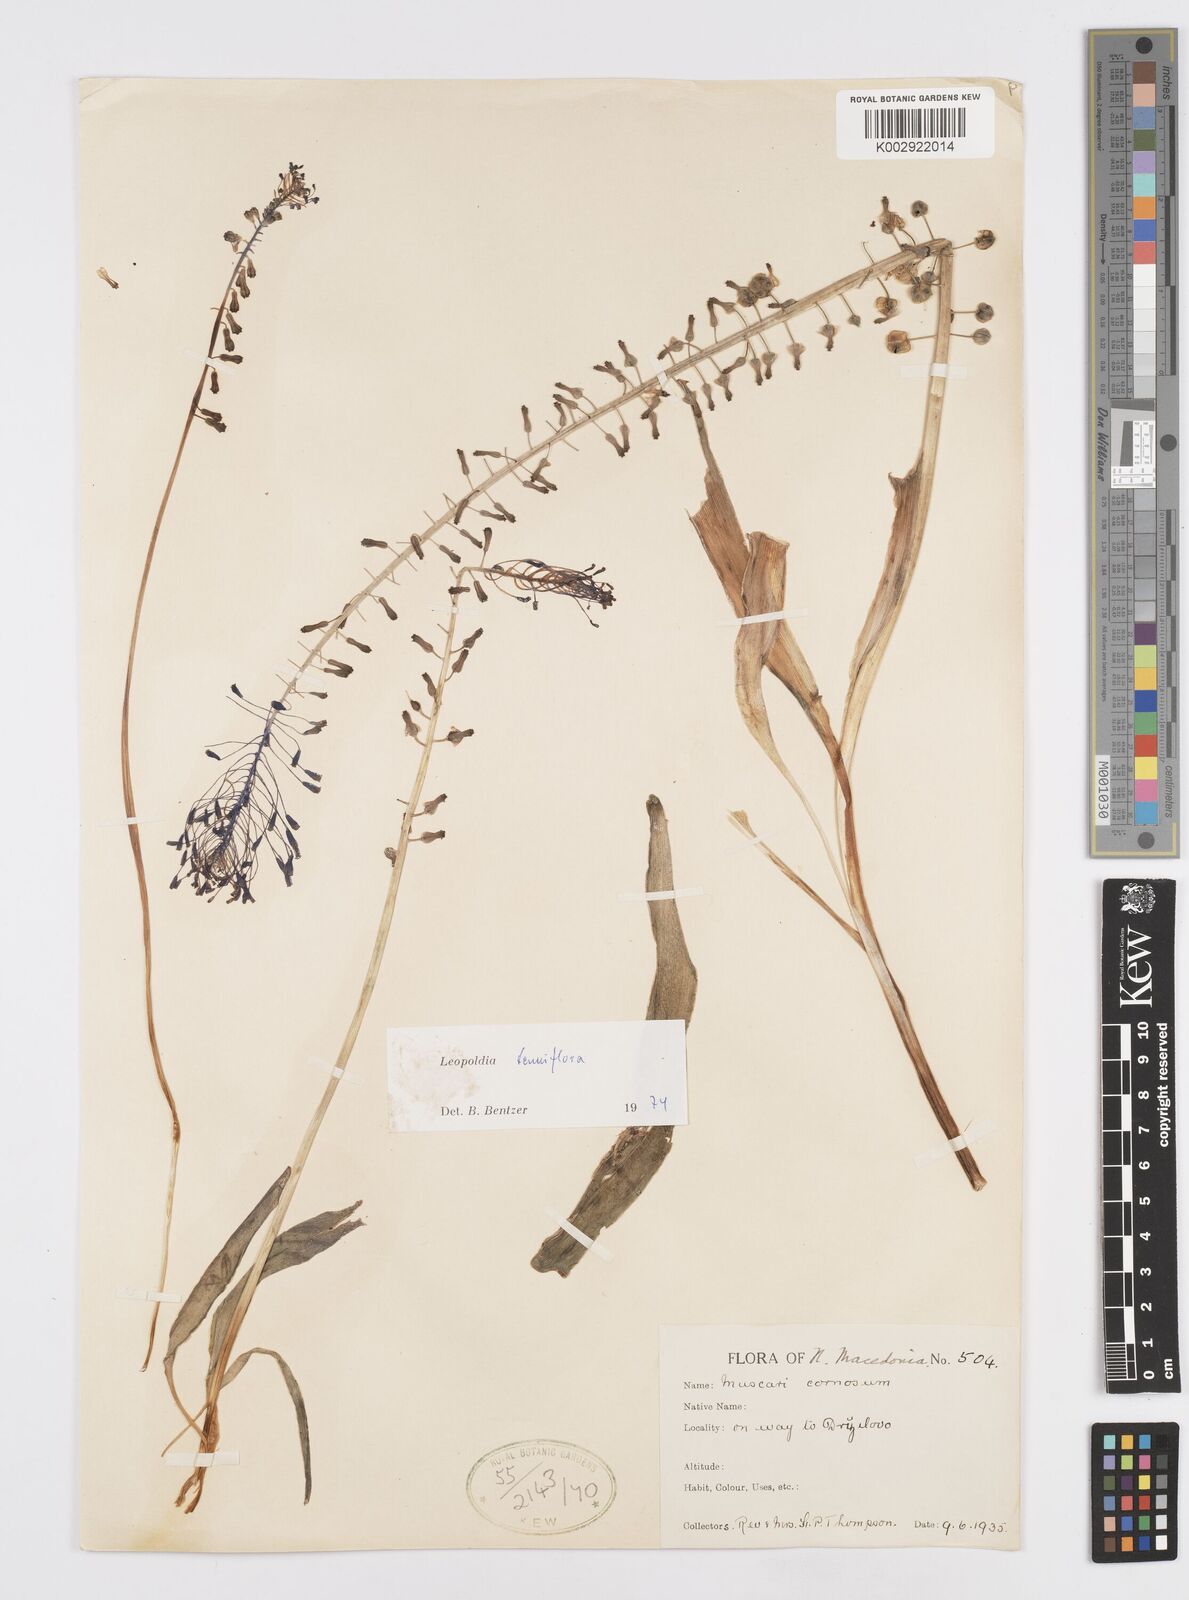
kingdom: Plantae
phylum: Tracheophyta
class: Liliopsida
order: Asparagales
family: Asparagaceae
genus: Muscari
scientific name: Muscari tenuiflorum
